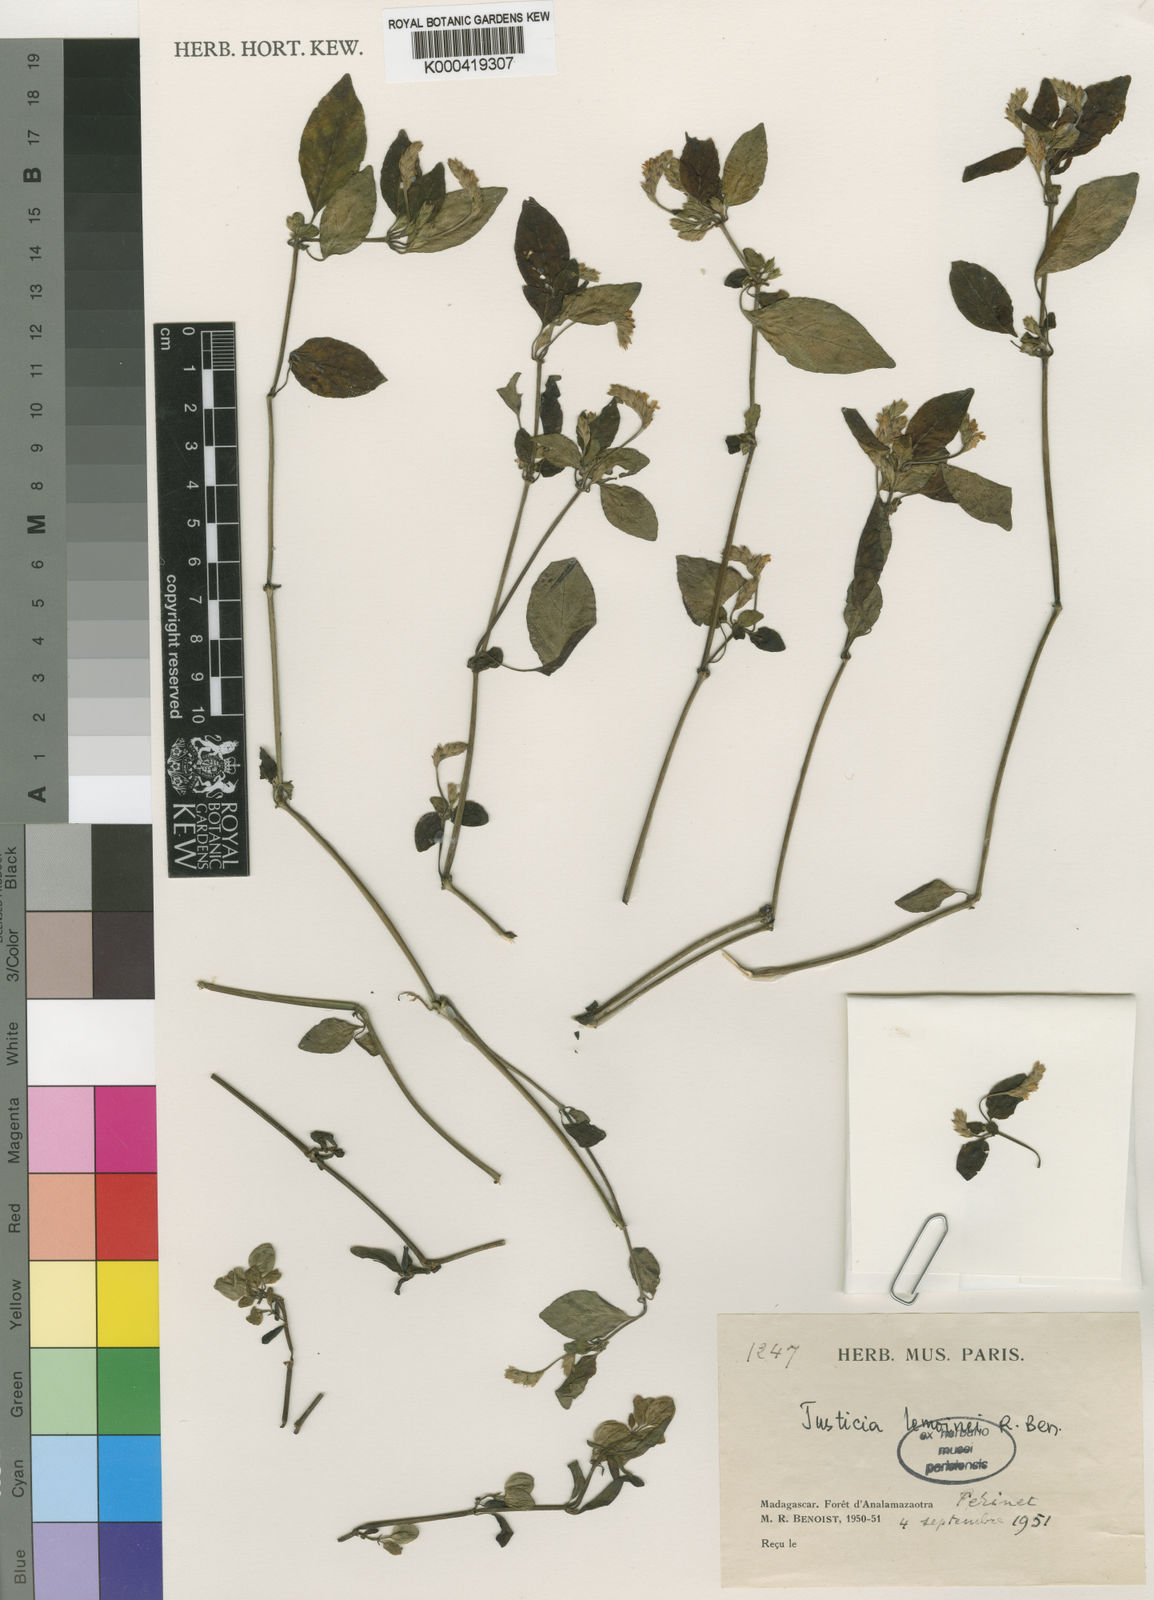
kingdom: Plantae
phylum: Tracheophyta
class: Magnoliopsida
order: Lamiales
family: Acanthaceae
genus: Justicia
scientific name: Justicia
